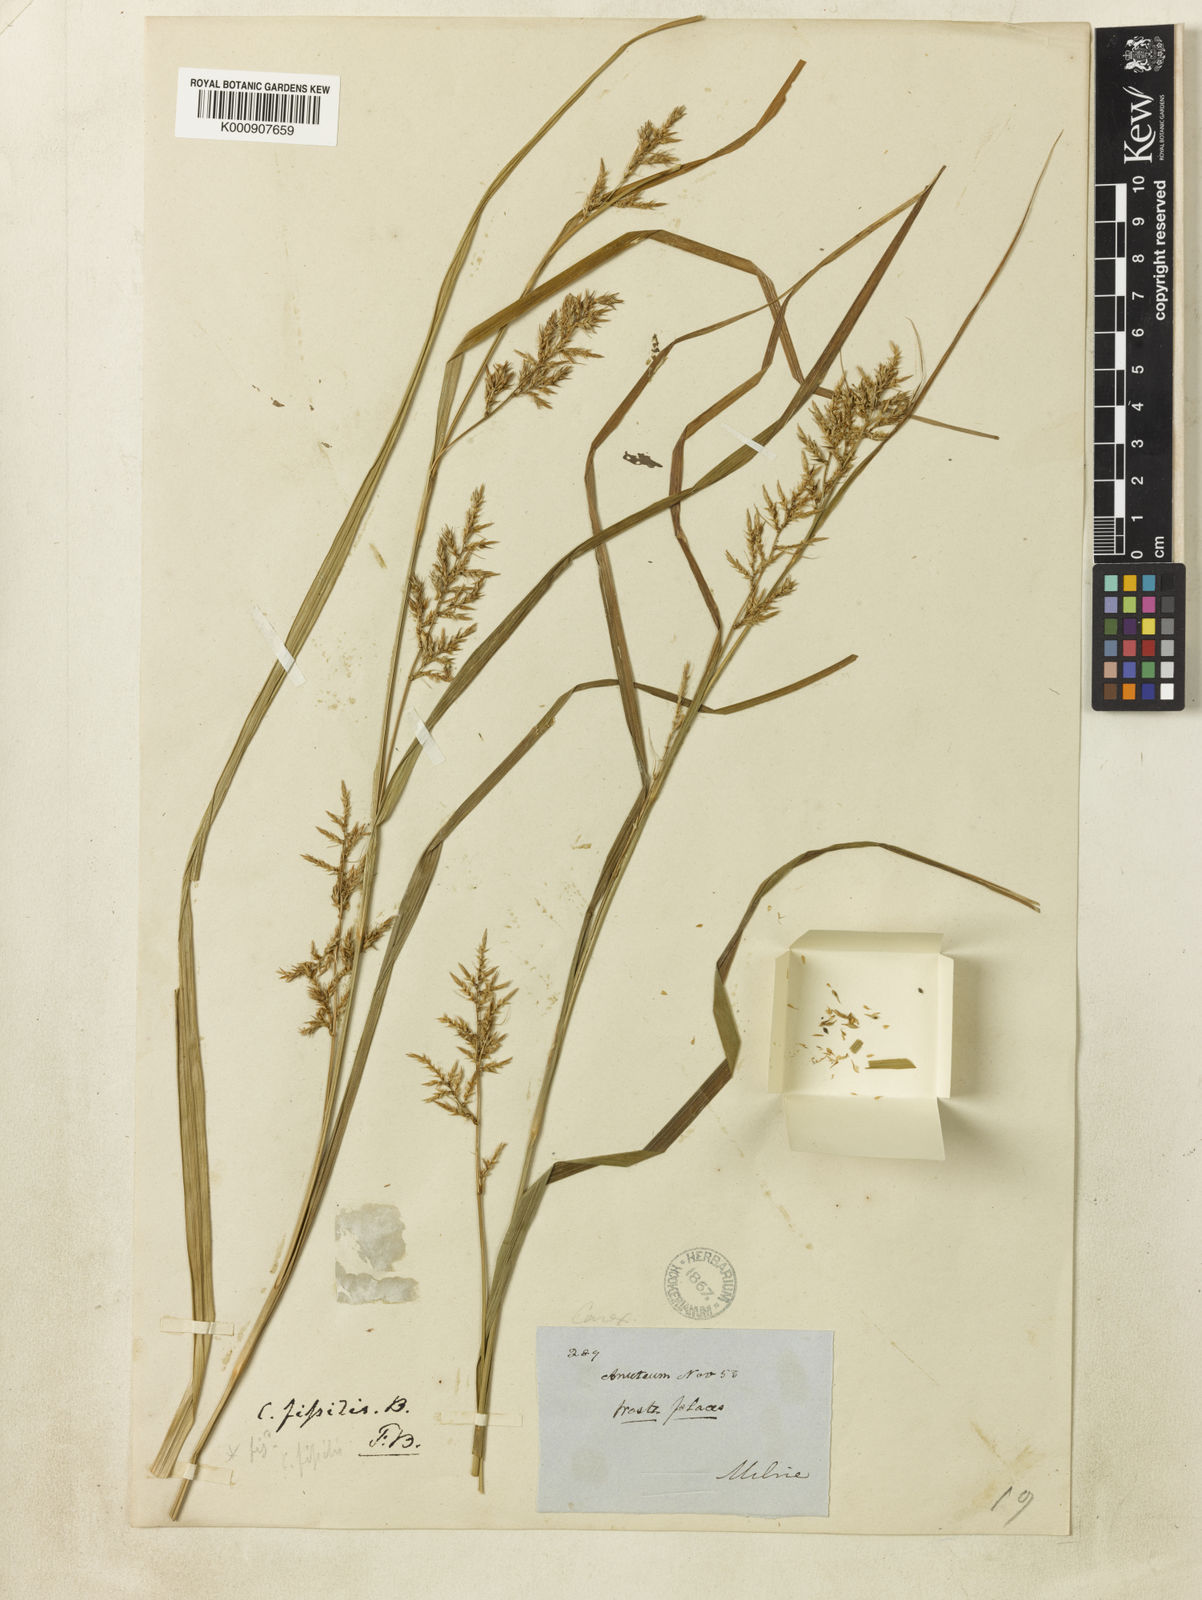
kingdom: Plantae
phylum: Tracheophyta
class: Liliopsida
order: Poales
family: Cyperaceae
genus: Carex
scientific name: Carex
